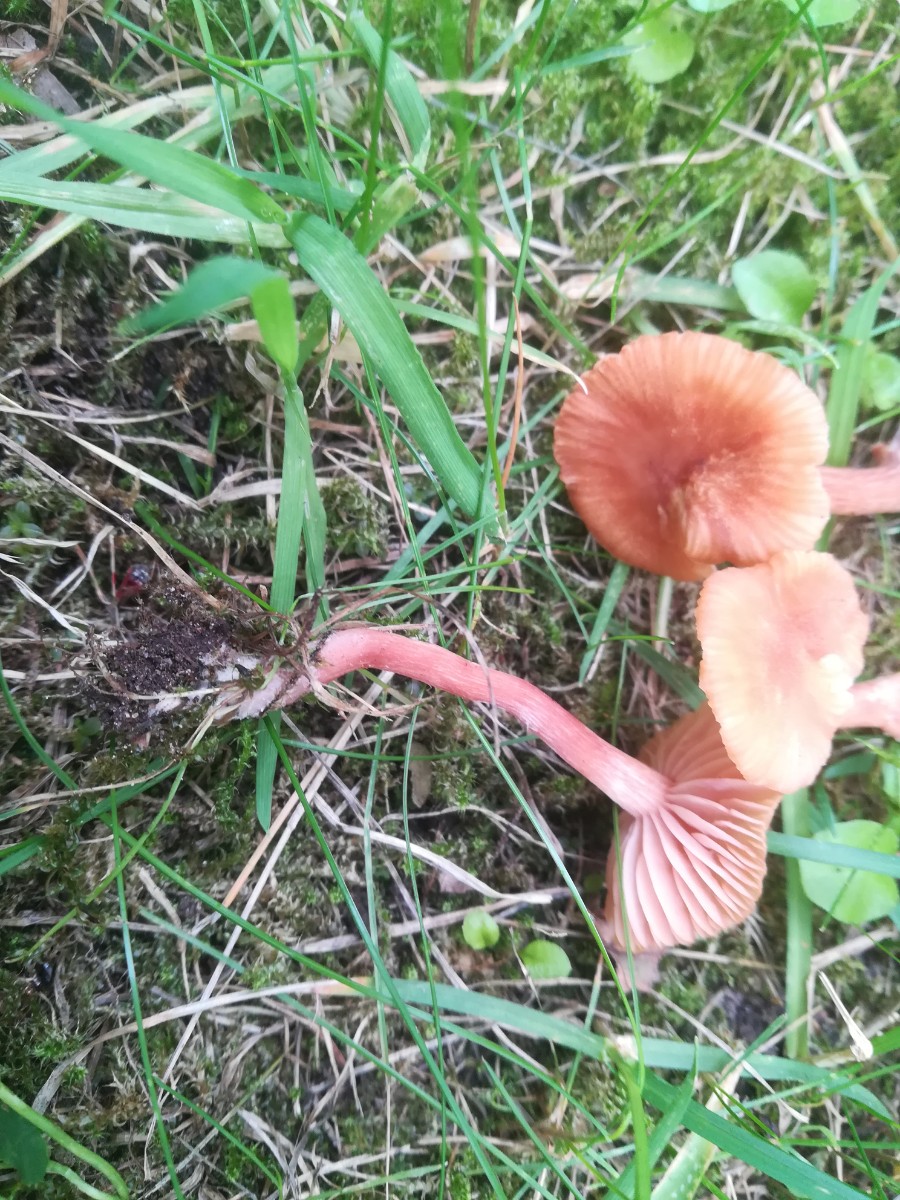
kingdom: Fungi
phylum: Basidiomycota
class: Agaricomycetes
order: Agaricales
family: Hydnangiaceae
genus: Laccaria
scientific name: Laccaria laccata
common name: rød ametysthat
